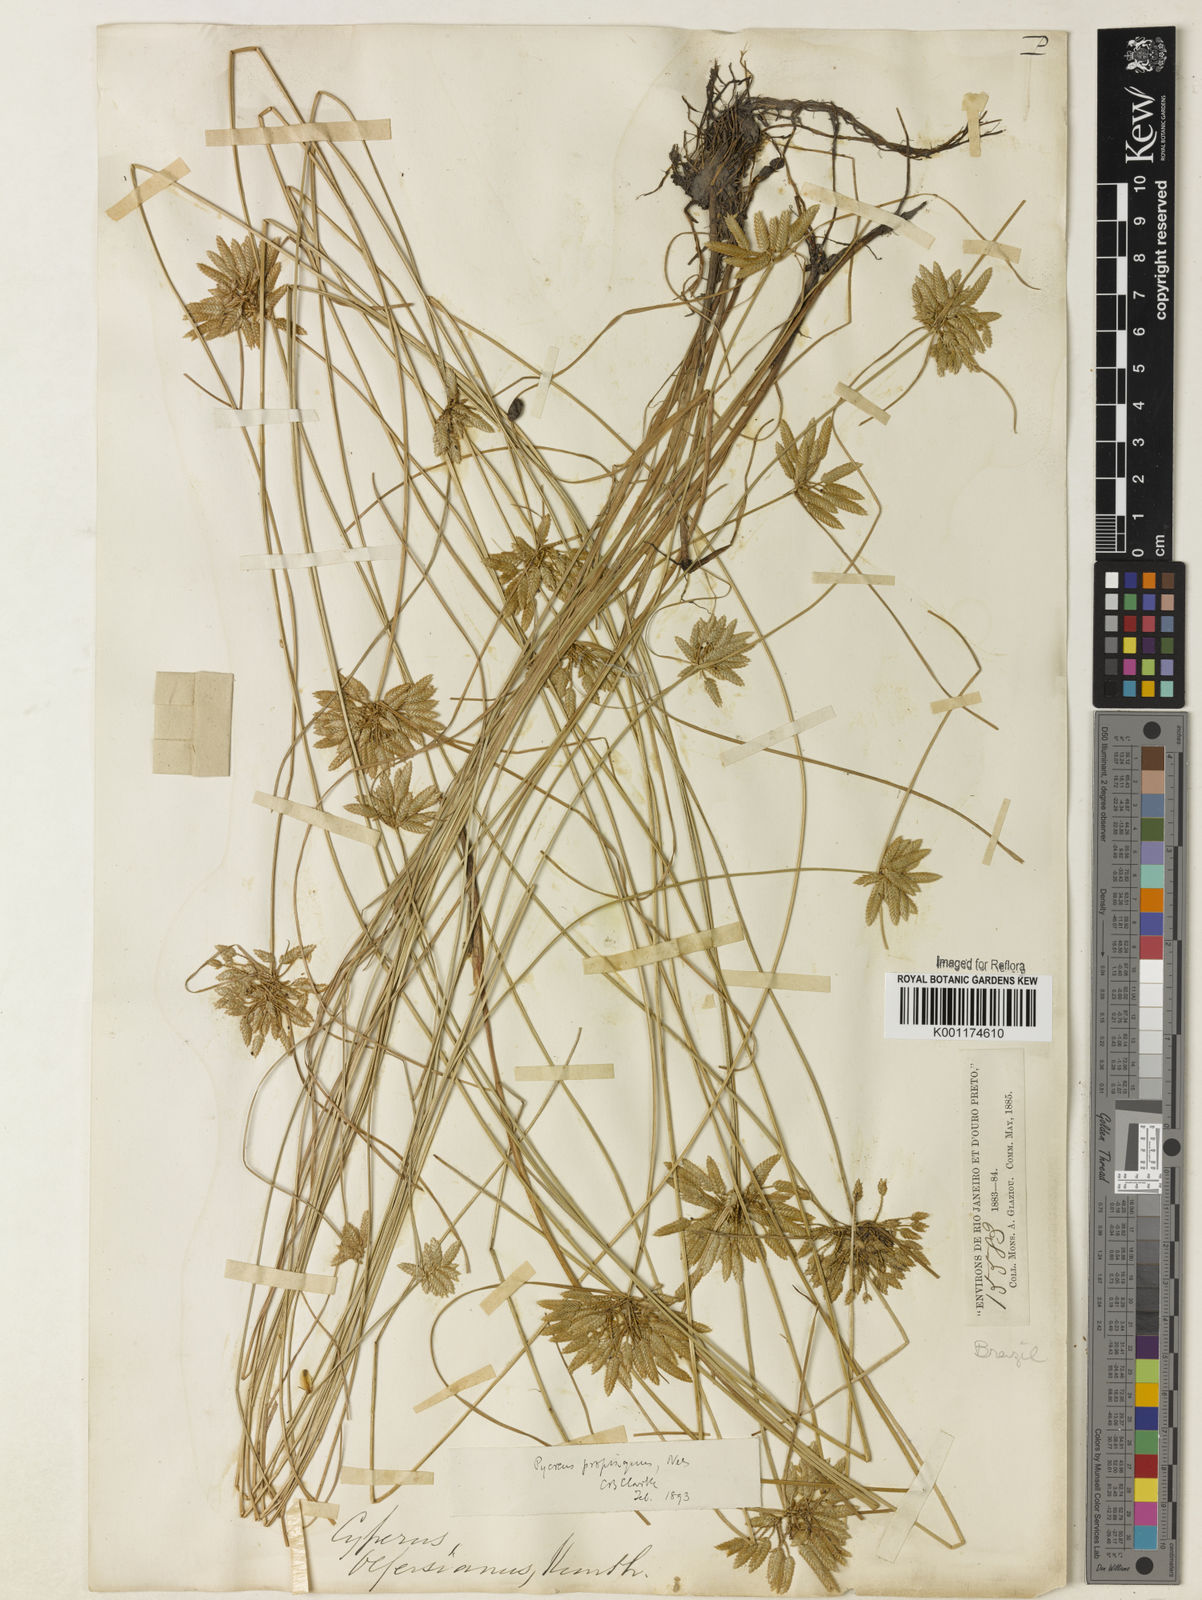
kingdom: Plantae
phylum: Tracheophyta
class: Liliopsida
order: Poales
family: Cyperaceae
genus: Cyperus
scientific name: Cyperus
